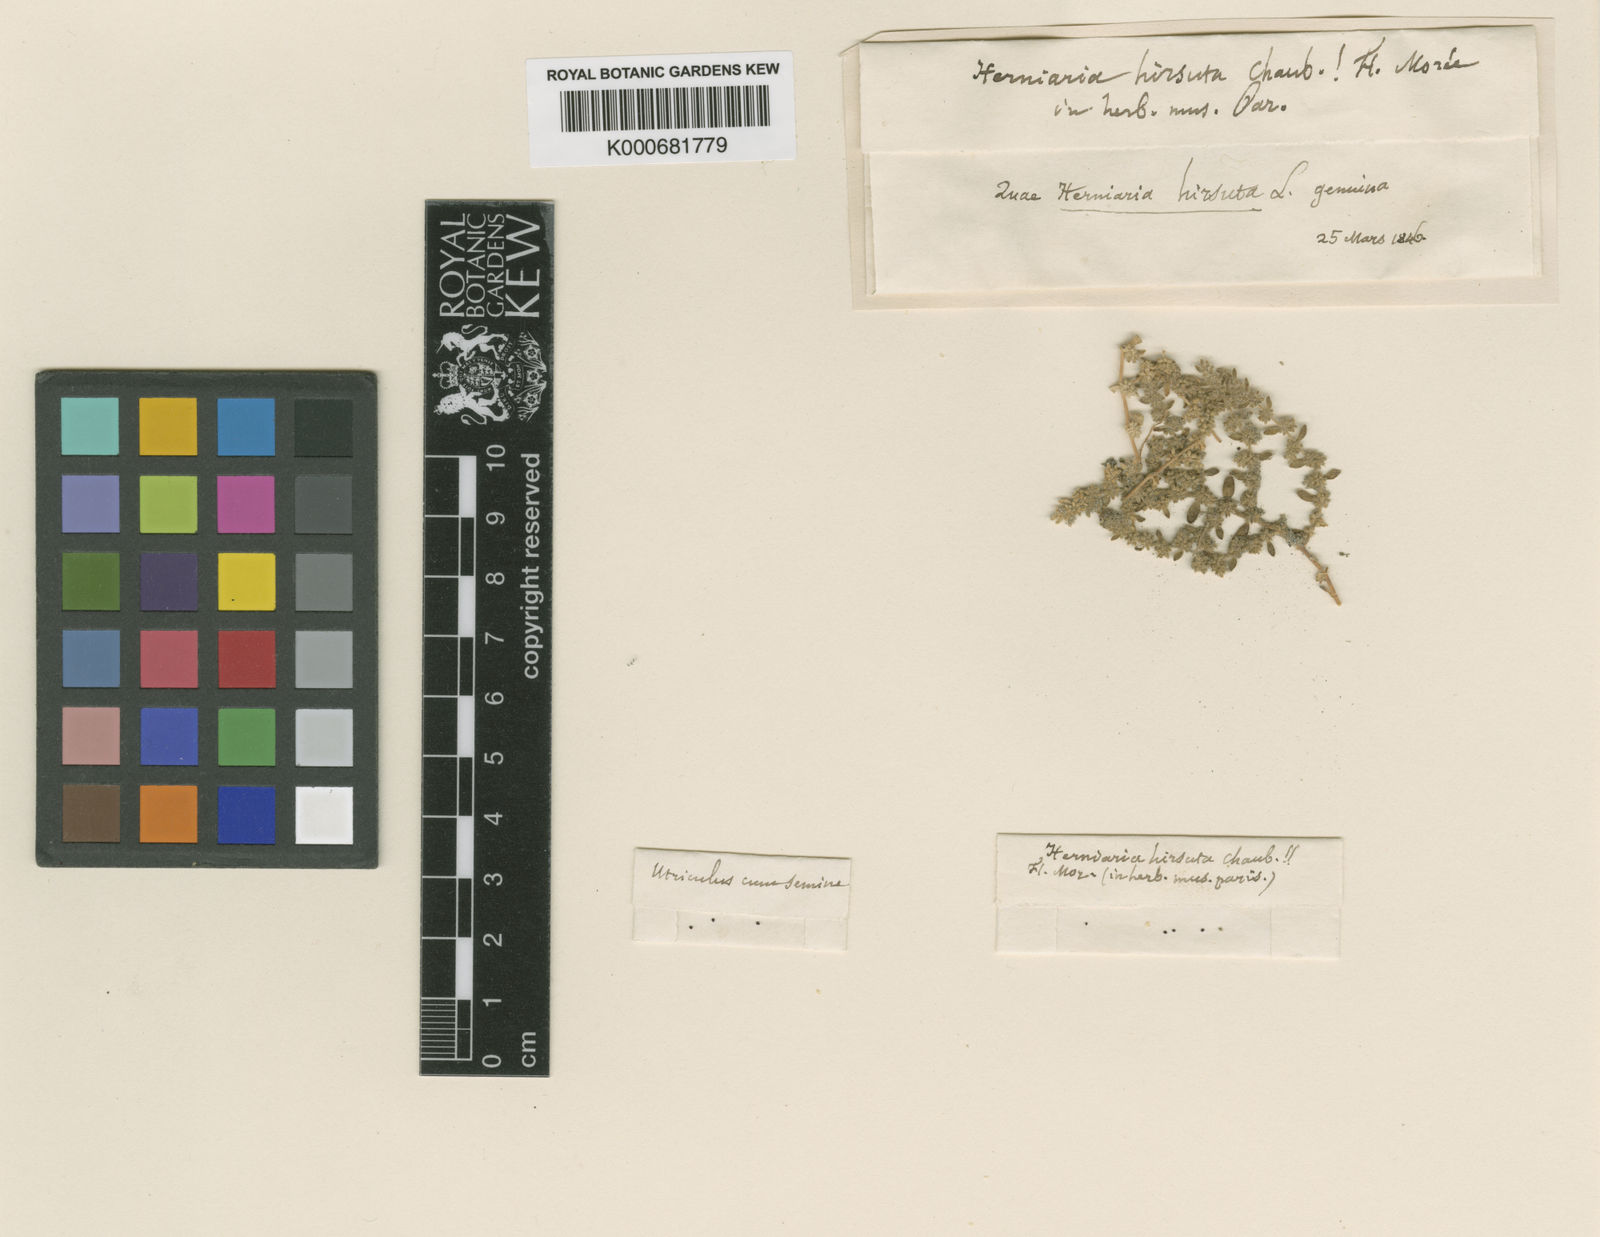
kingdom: Plantae
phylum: Tracheophyta
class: Magnoliopsida
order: Caryophyllales
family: Caryophyllaceae
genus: Herniaria
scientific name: Herniaria
